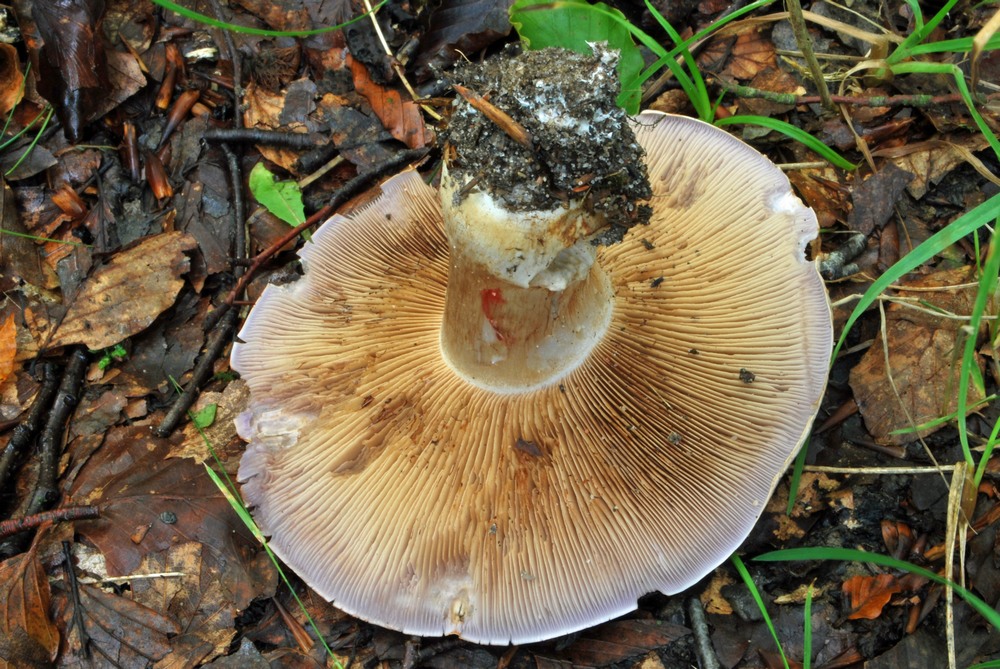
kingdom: Fungi
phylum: Basidiomycota
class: Agaricomycetes
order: Agaricales
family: Cortinariaceae
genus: Cortinarius
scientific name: Cortinarius largus
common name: violetrandet slørhat
